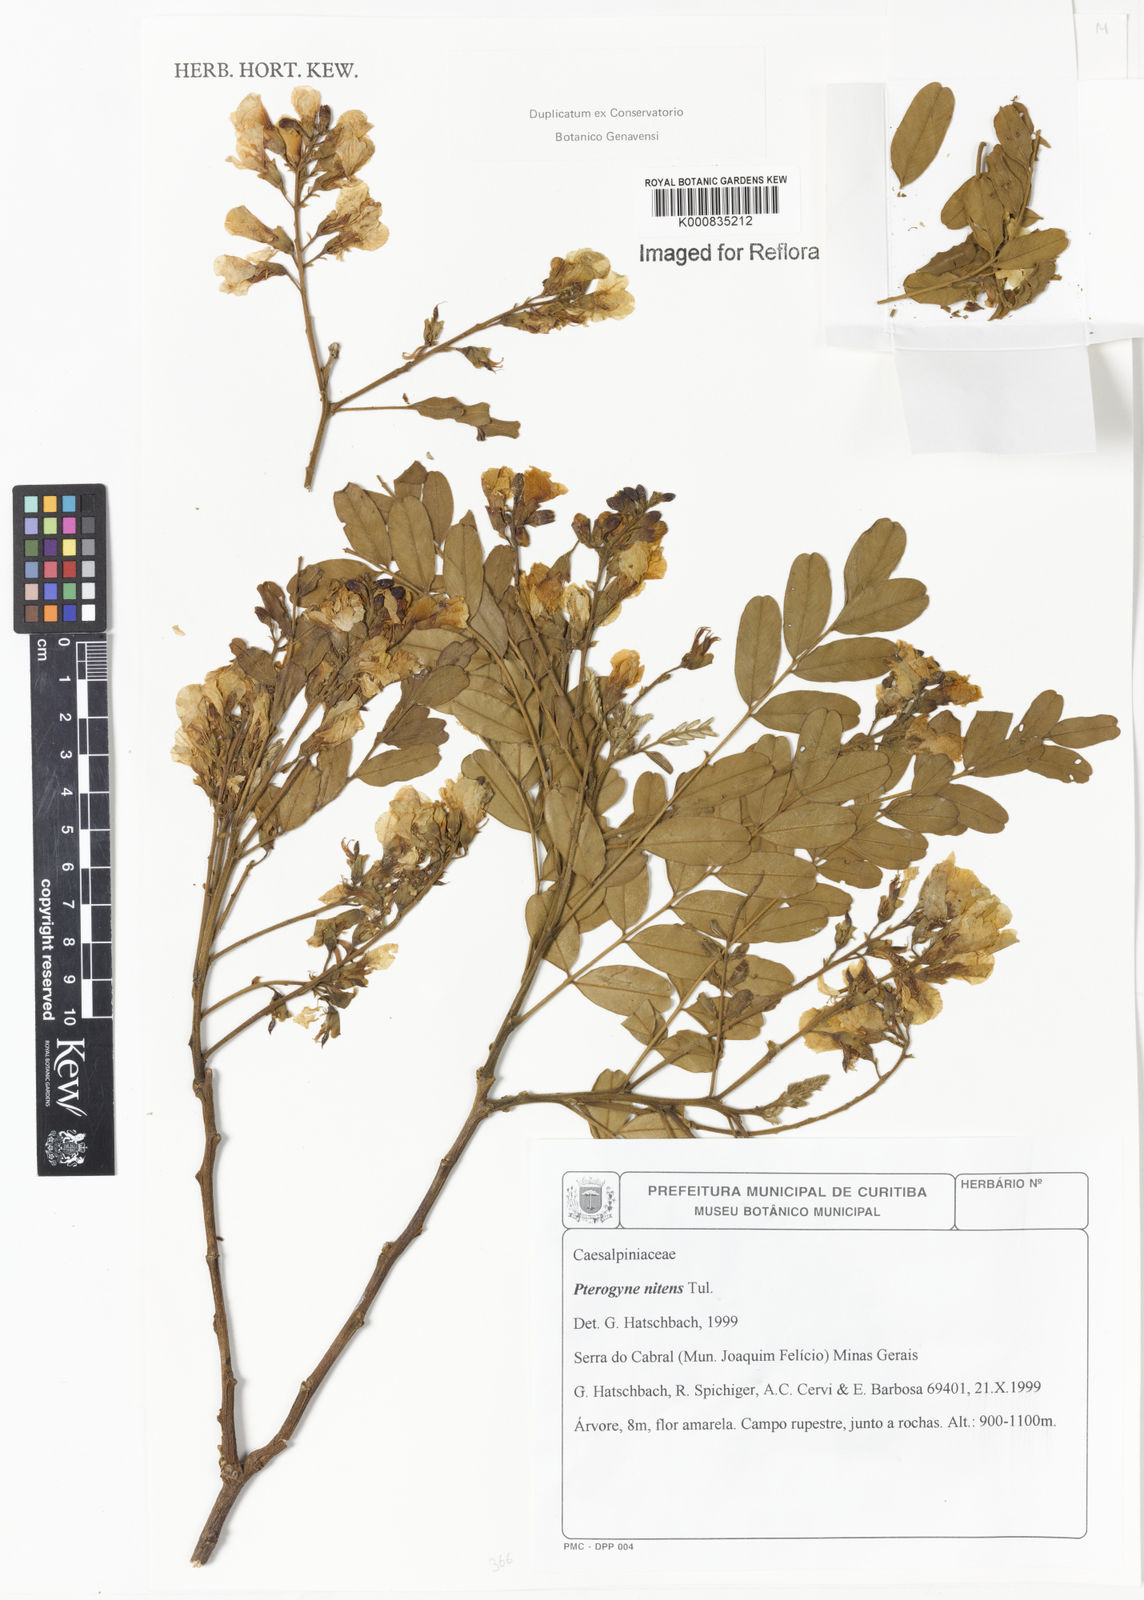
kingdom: Plantae
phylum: Tracheophyta
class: Magnoliopsida
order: Fabales
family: Fabaceae
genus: Platypodium
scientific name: Platypodium elegans
